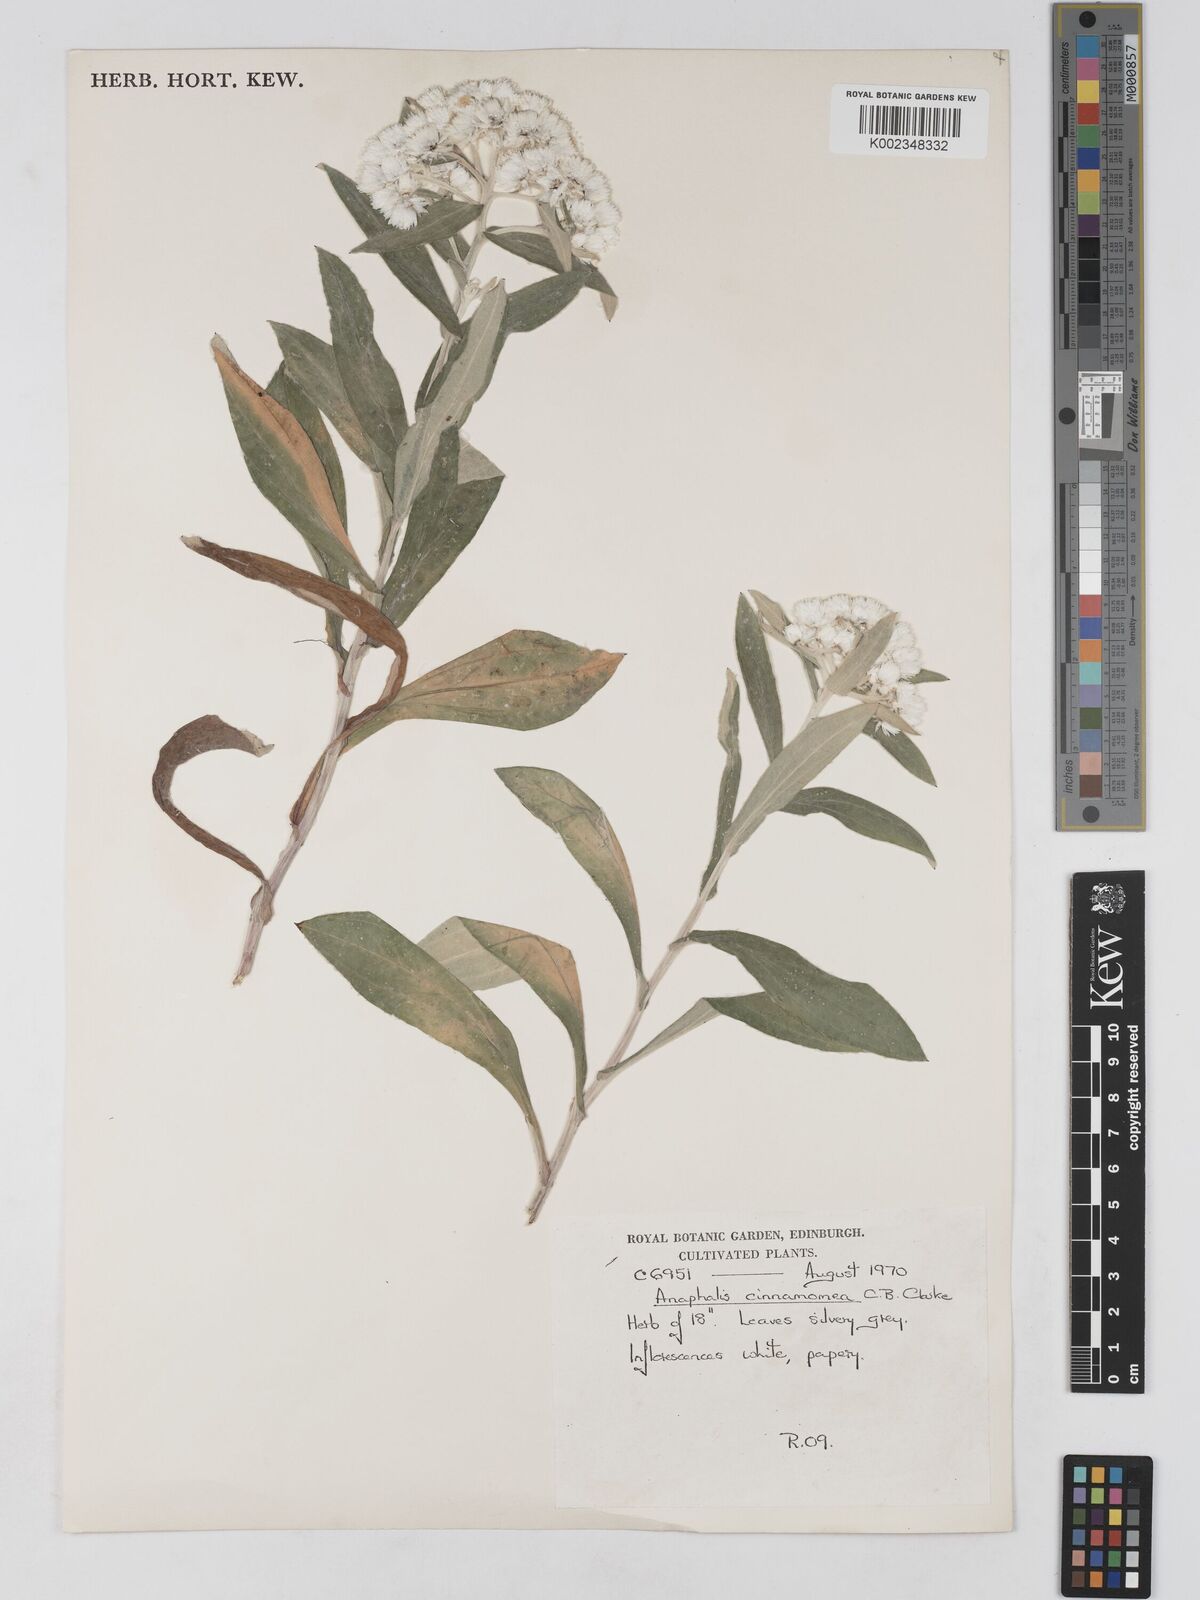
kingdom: Plantae
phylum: Tracheophyta
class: Magnoliopsida
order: Asterales
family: Asteraceae
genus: Anaphalis
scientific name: Anaphalis triplinervis
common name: Pearly everlasting
